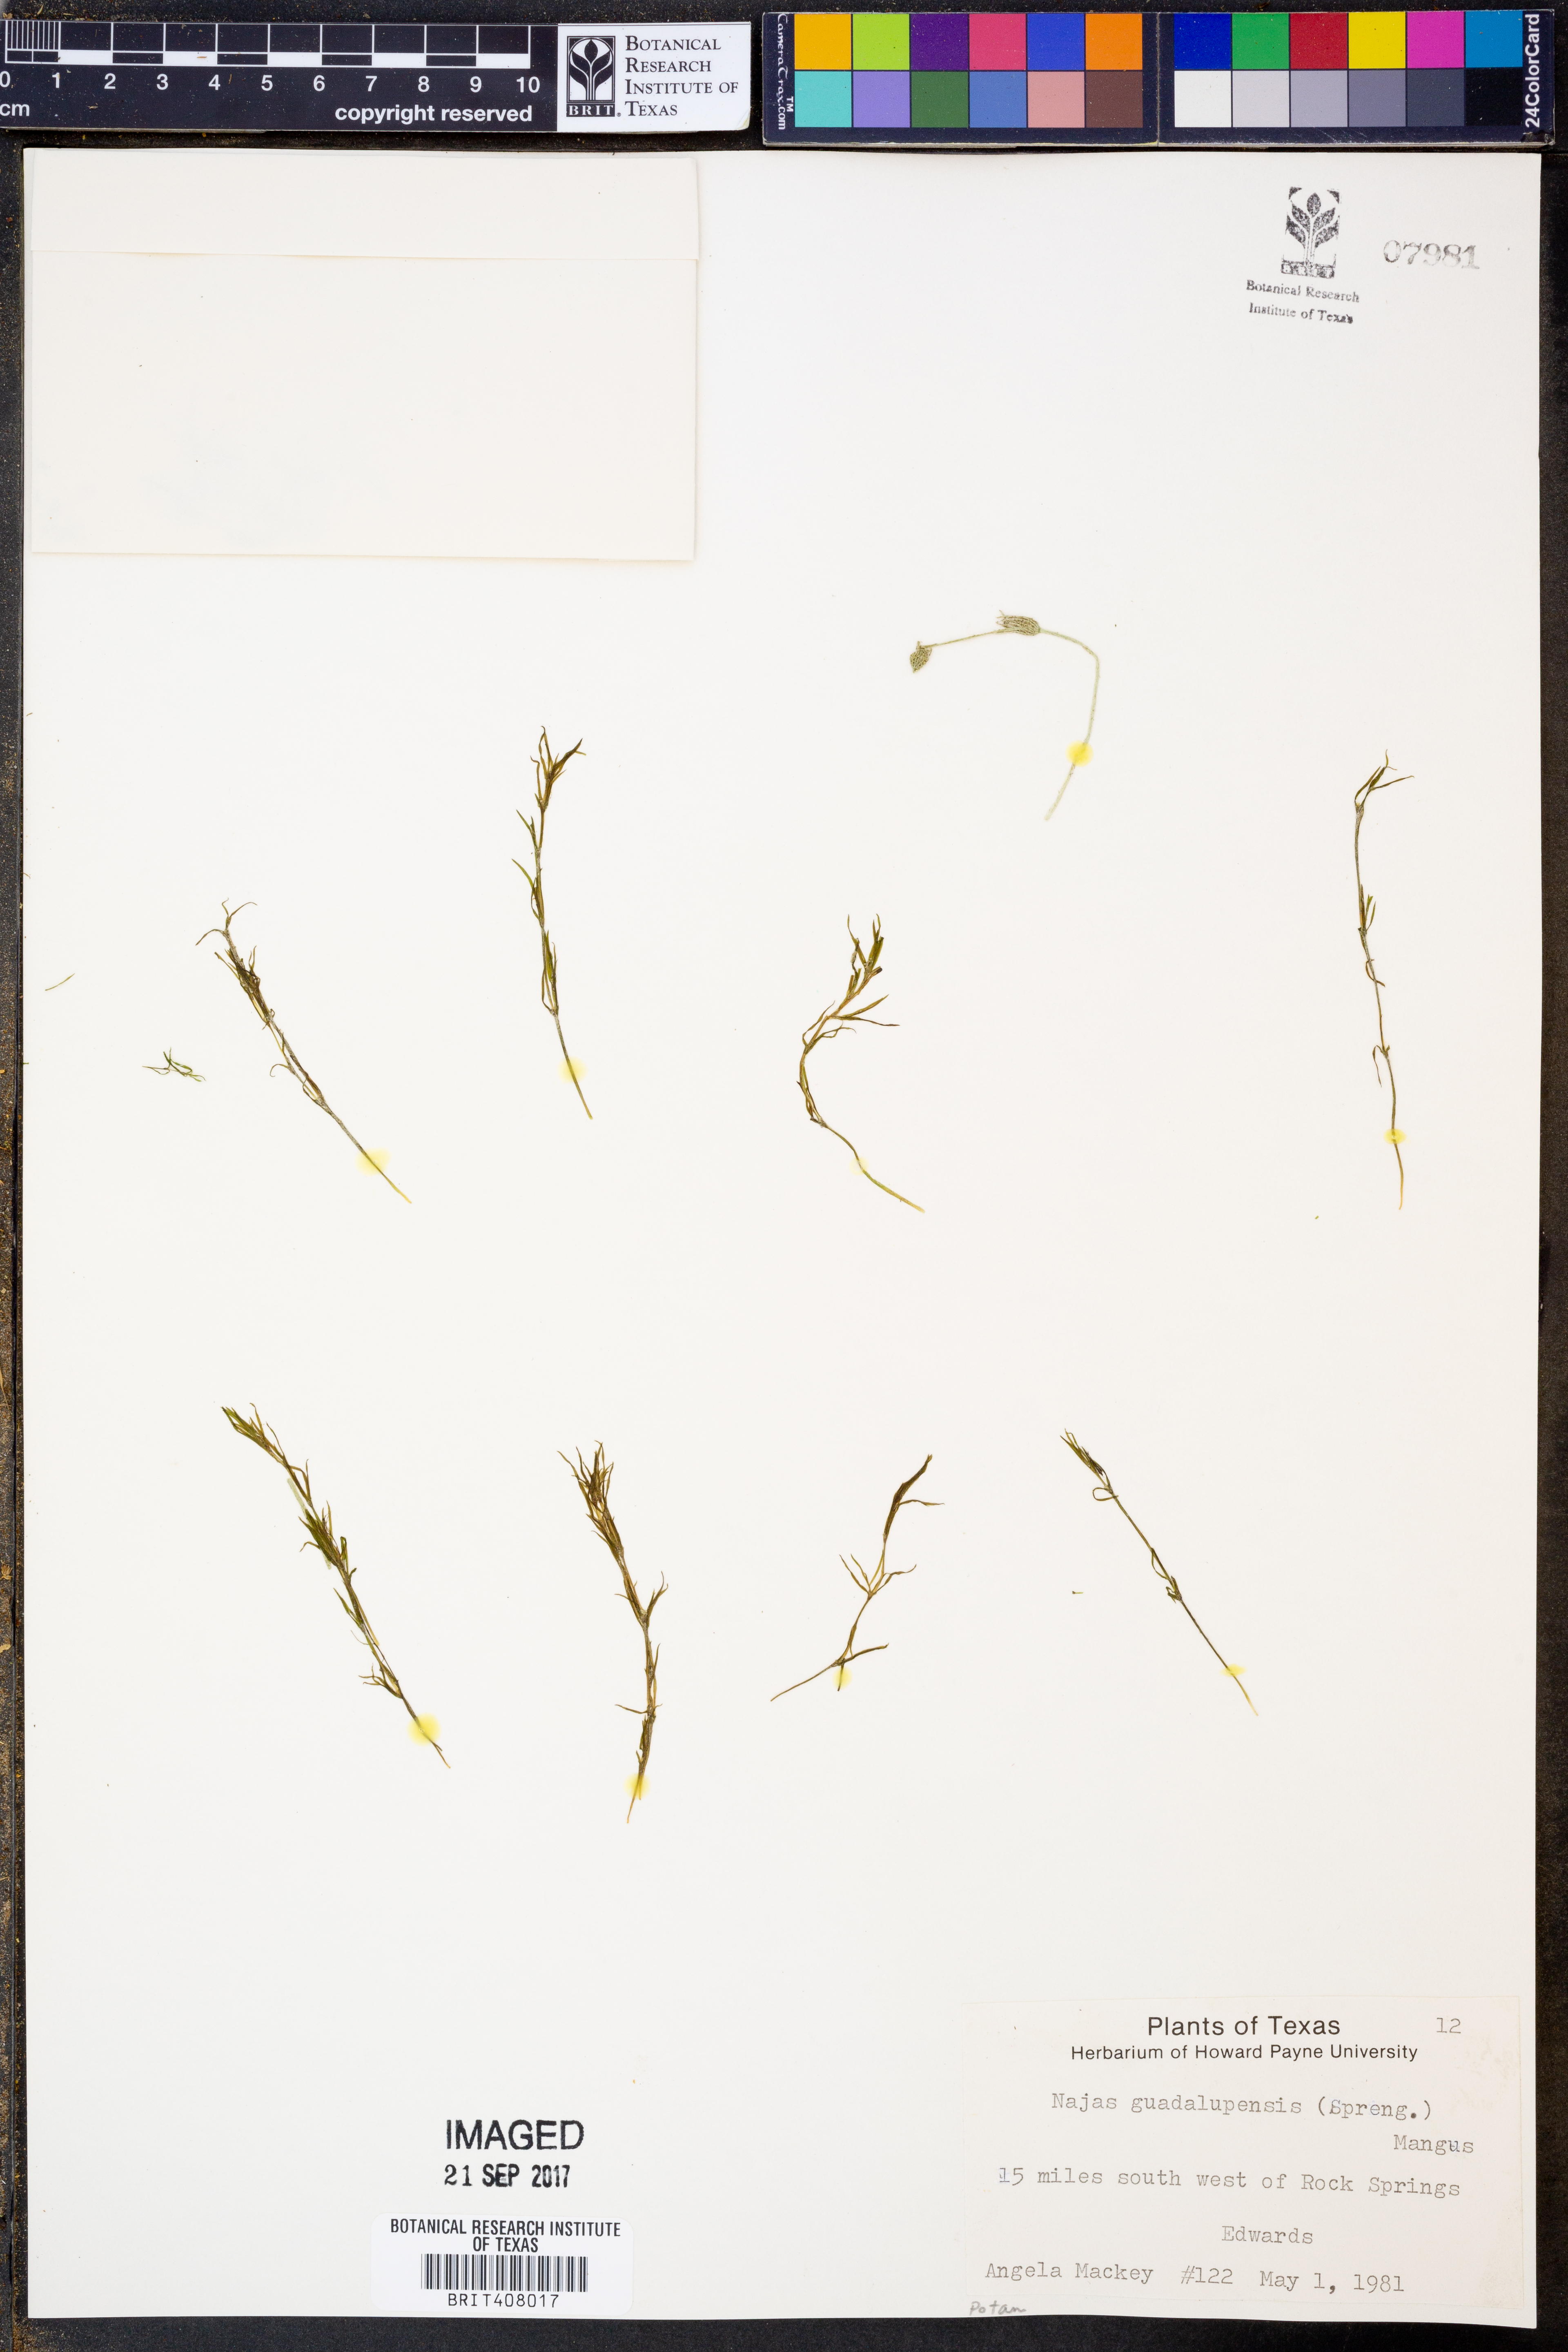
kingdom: Plantae
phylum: Tracheophyta
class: Liliopsida
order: Alismatales
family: Hydrocharitaceae
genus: Najas
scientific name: Najas guadalupensis
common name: Southern naiad
